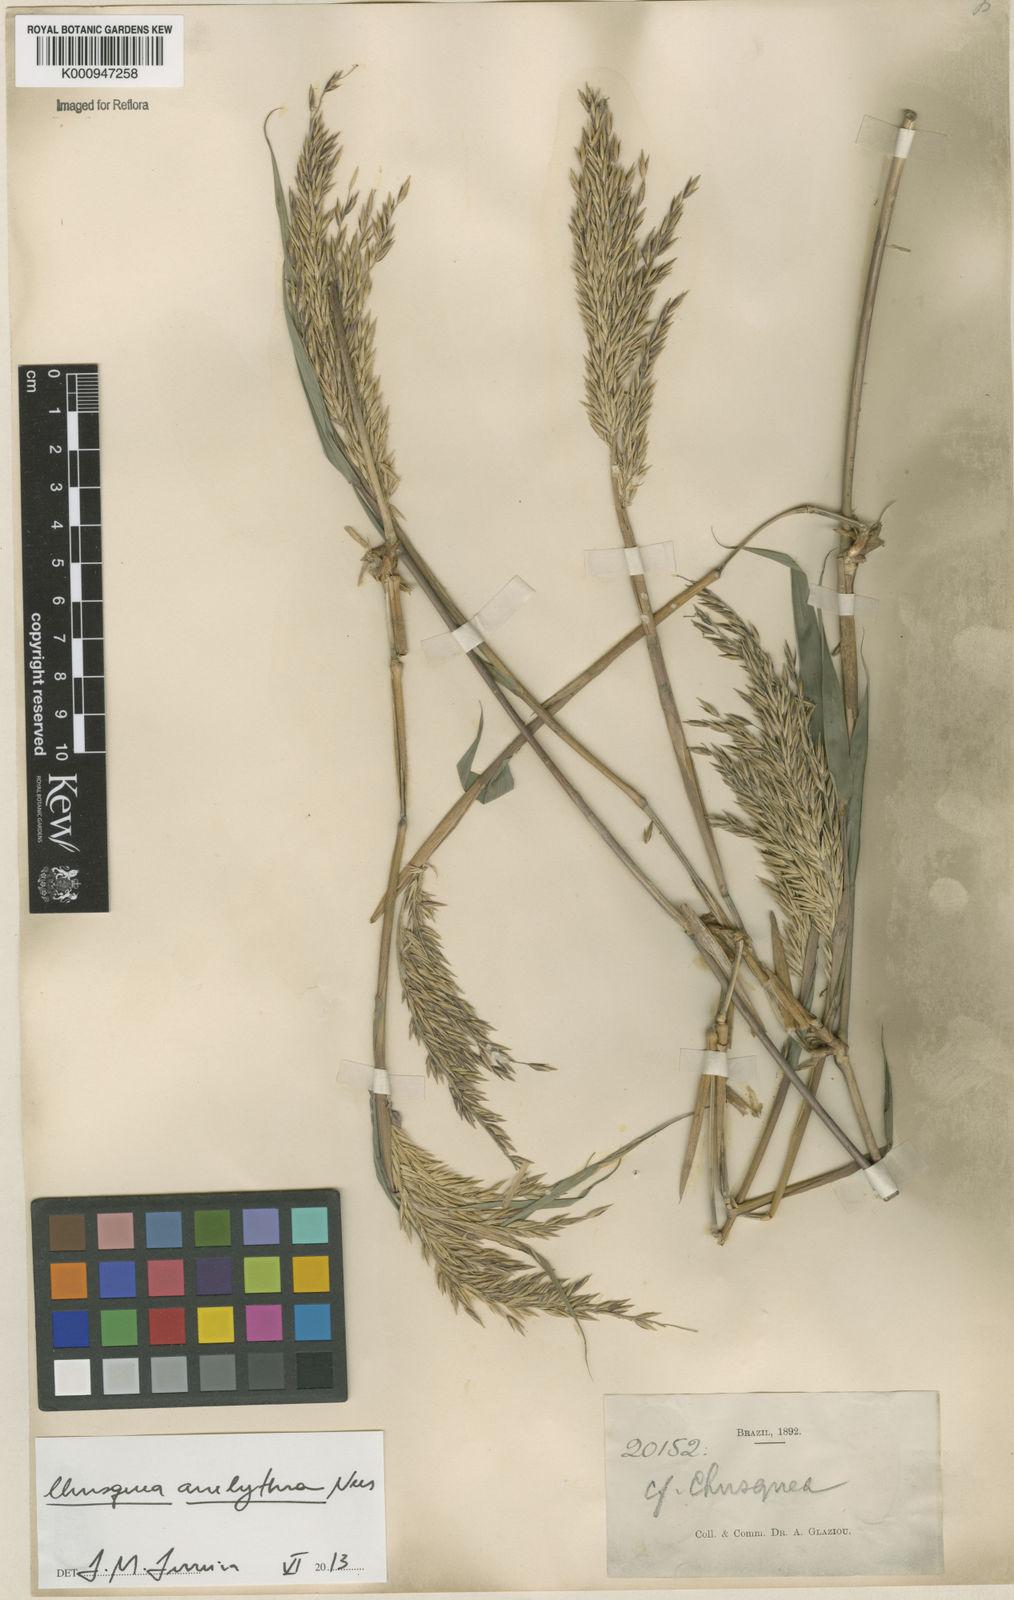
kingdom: Plantae
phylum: Tracheophyta
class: Liliopsida
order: Poales
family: Poaceae
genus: Chusquea
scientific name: Chusquea anelythra
